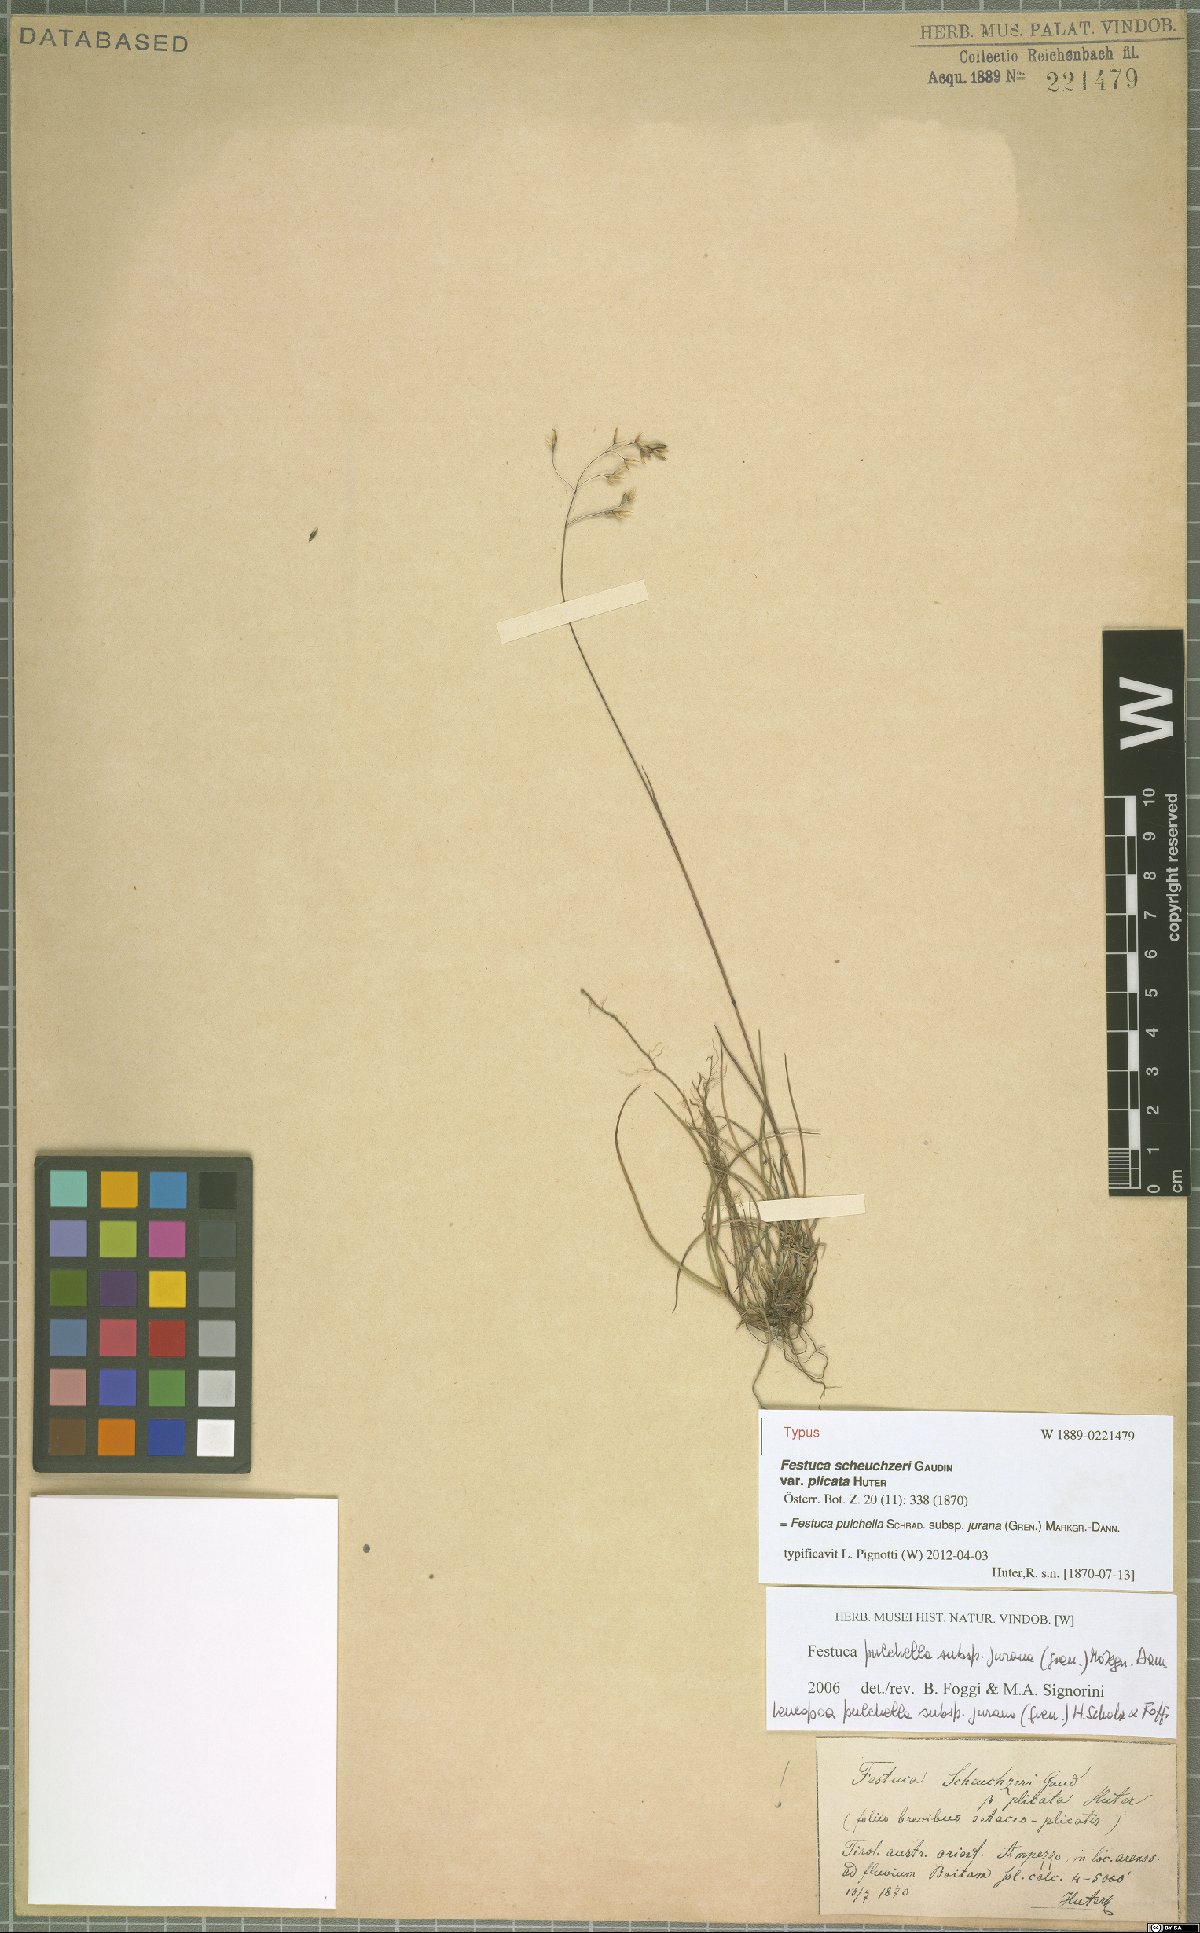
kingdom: Plantae
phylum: Tracheophyta
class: Liliopsida
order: Poales
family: Poaceae
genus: Festuca
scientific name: Festuca pulchella
